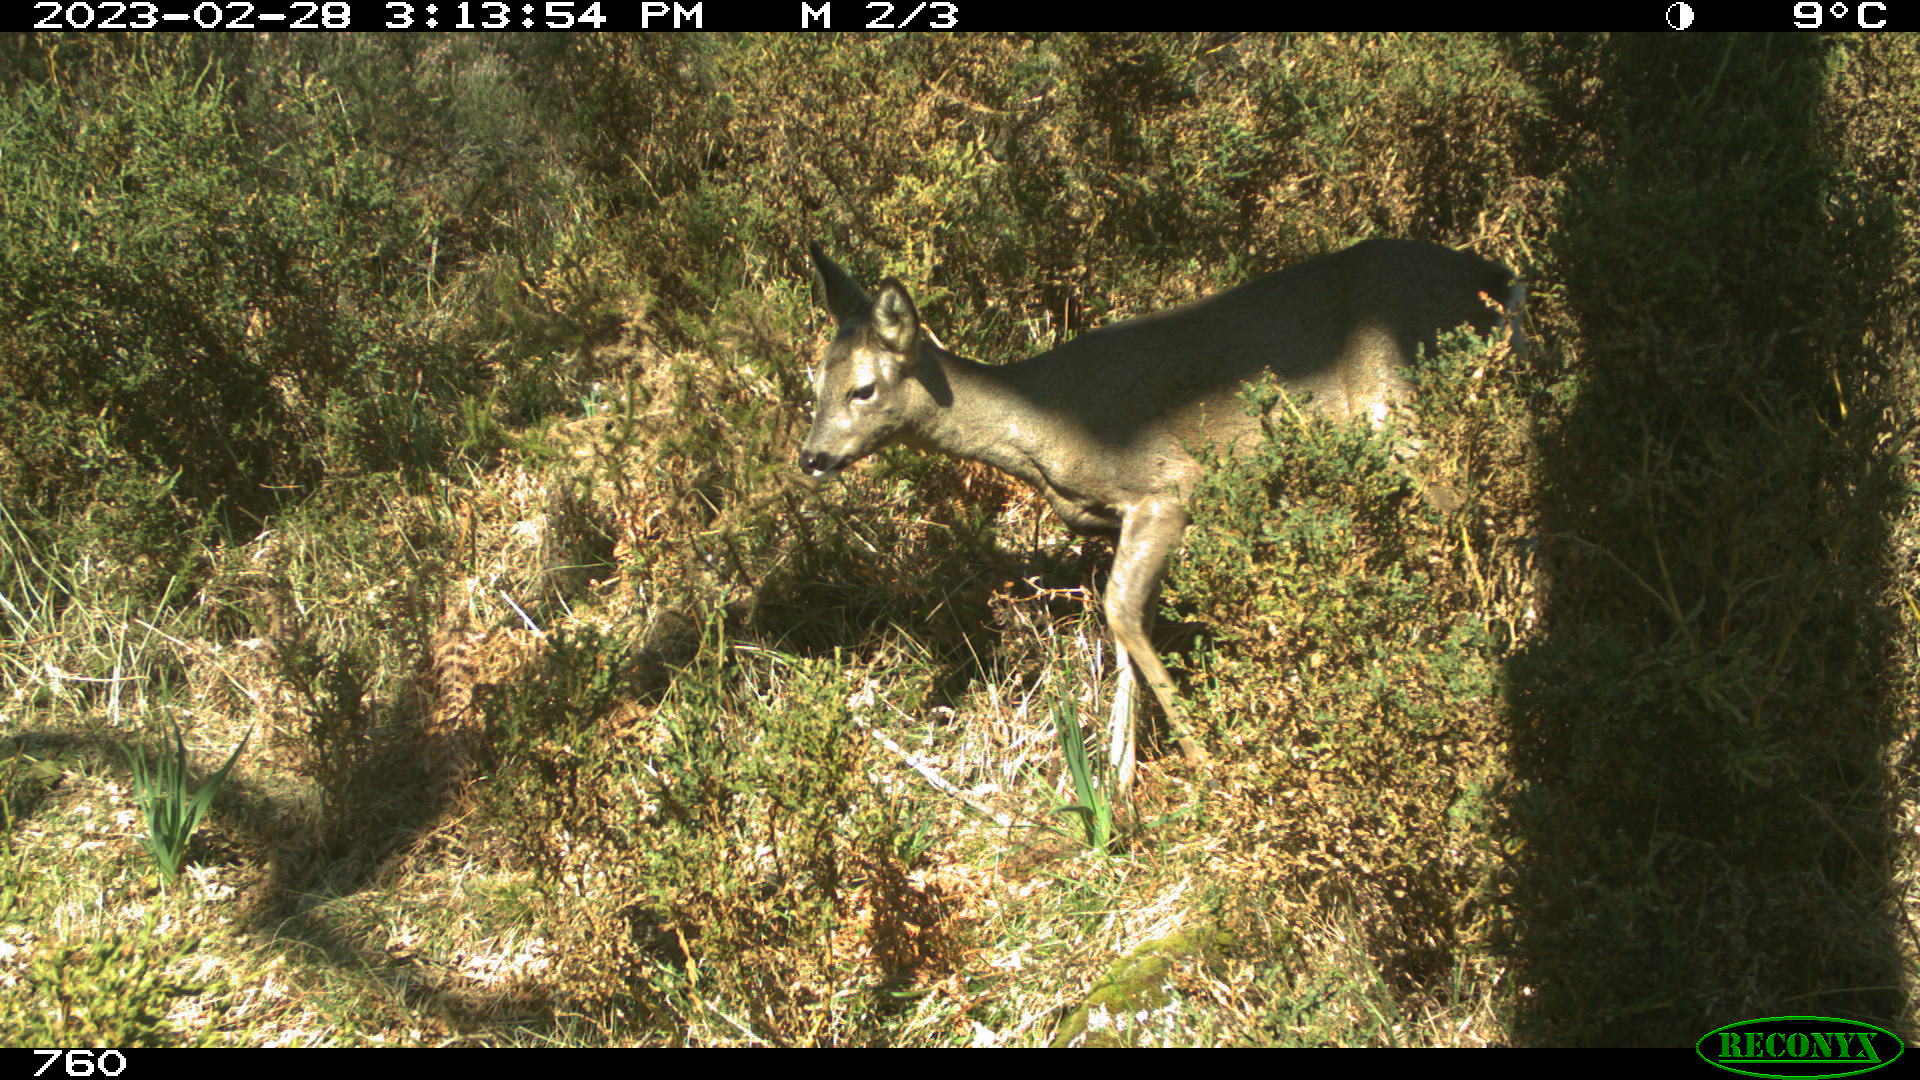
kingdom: Animalia
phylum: Chordata
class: Mammalia
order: Artiodactyla
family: Cervidae
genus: Capreolus
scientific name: Capreolus capreolus
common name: Western roe deer
